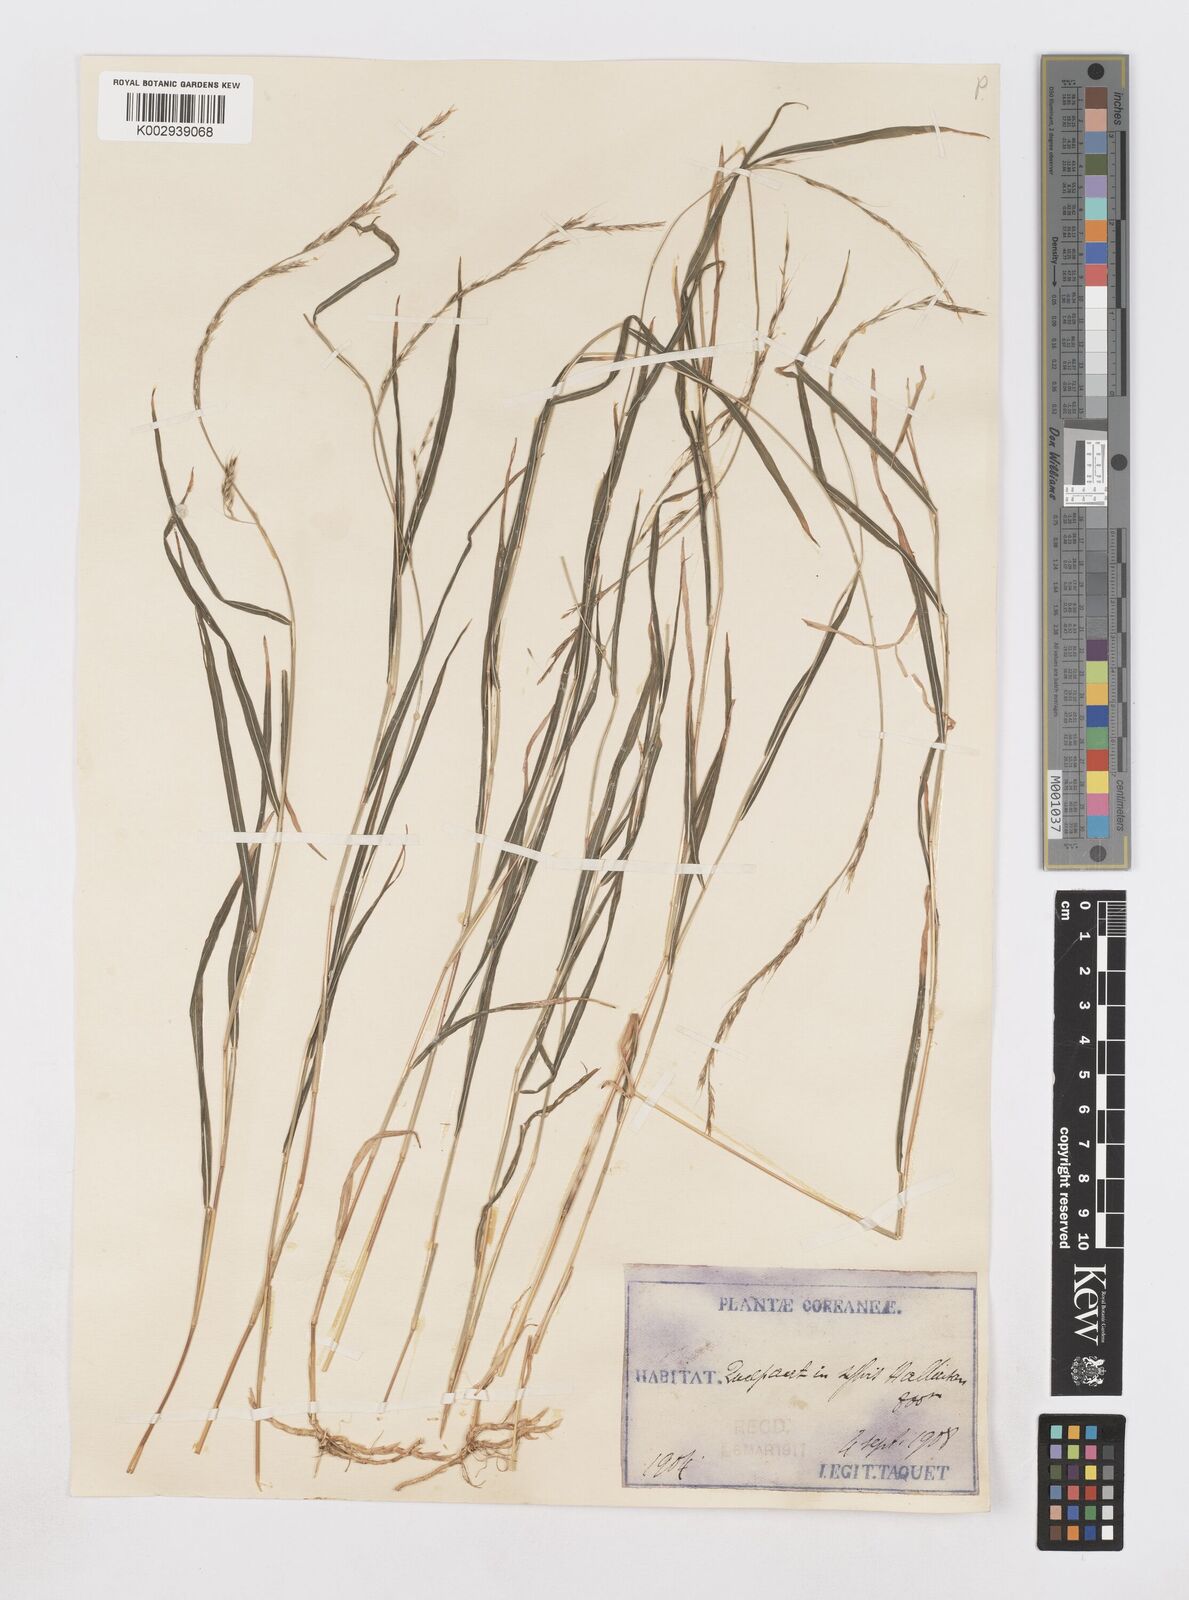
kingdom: Plantae
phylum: Tracheophyta
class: Liliopsida
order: Poales
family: Poaceae
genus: Muhlenbergia
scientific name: Muhlenbergia hakonensis
